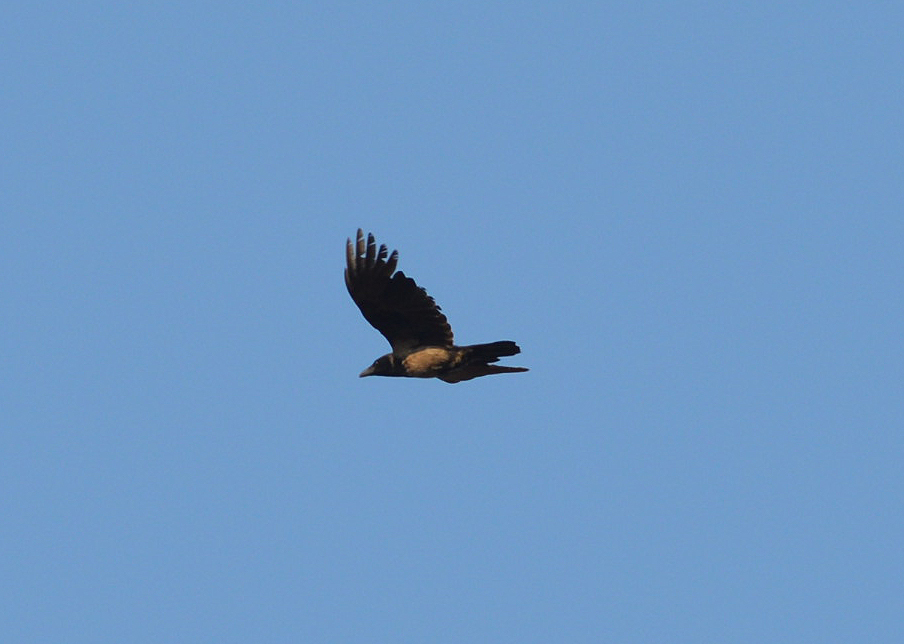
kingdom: Animalia
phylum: Chordata
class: Aves
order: Passeriformes
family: Corvidae
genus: Corvus
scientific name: Corvus cornix
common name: Hooded crow
